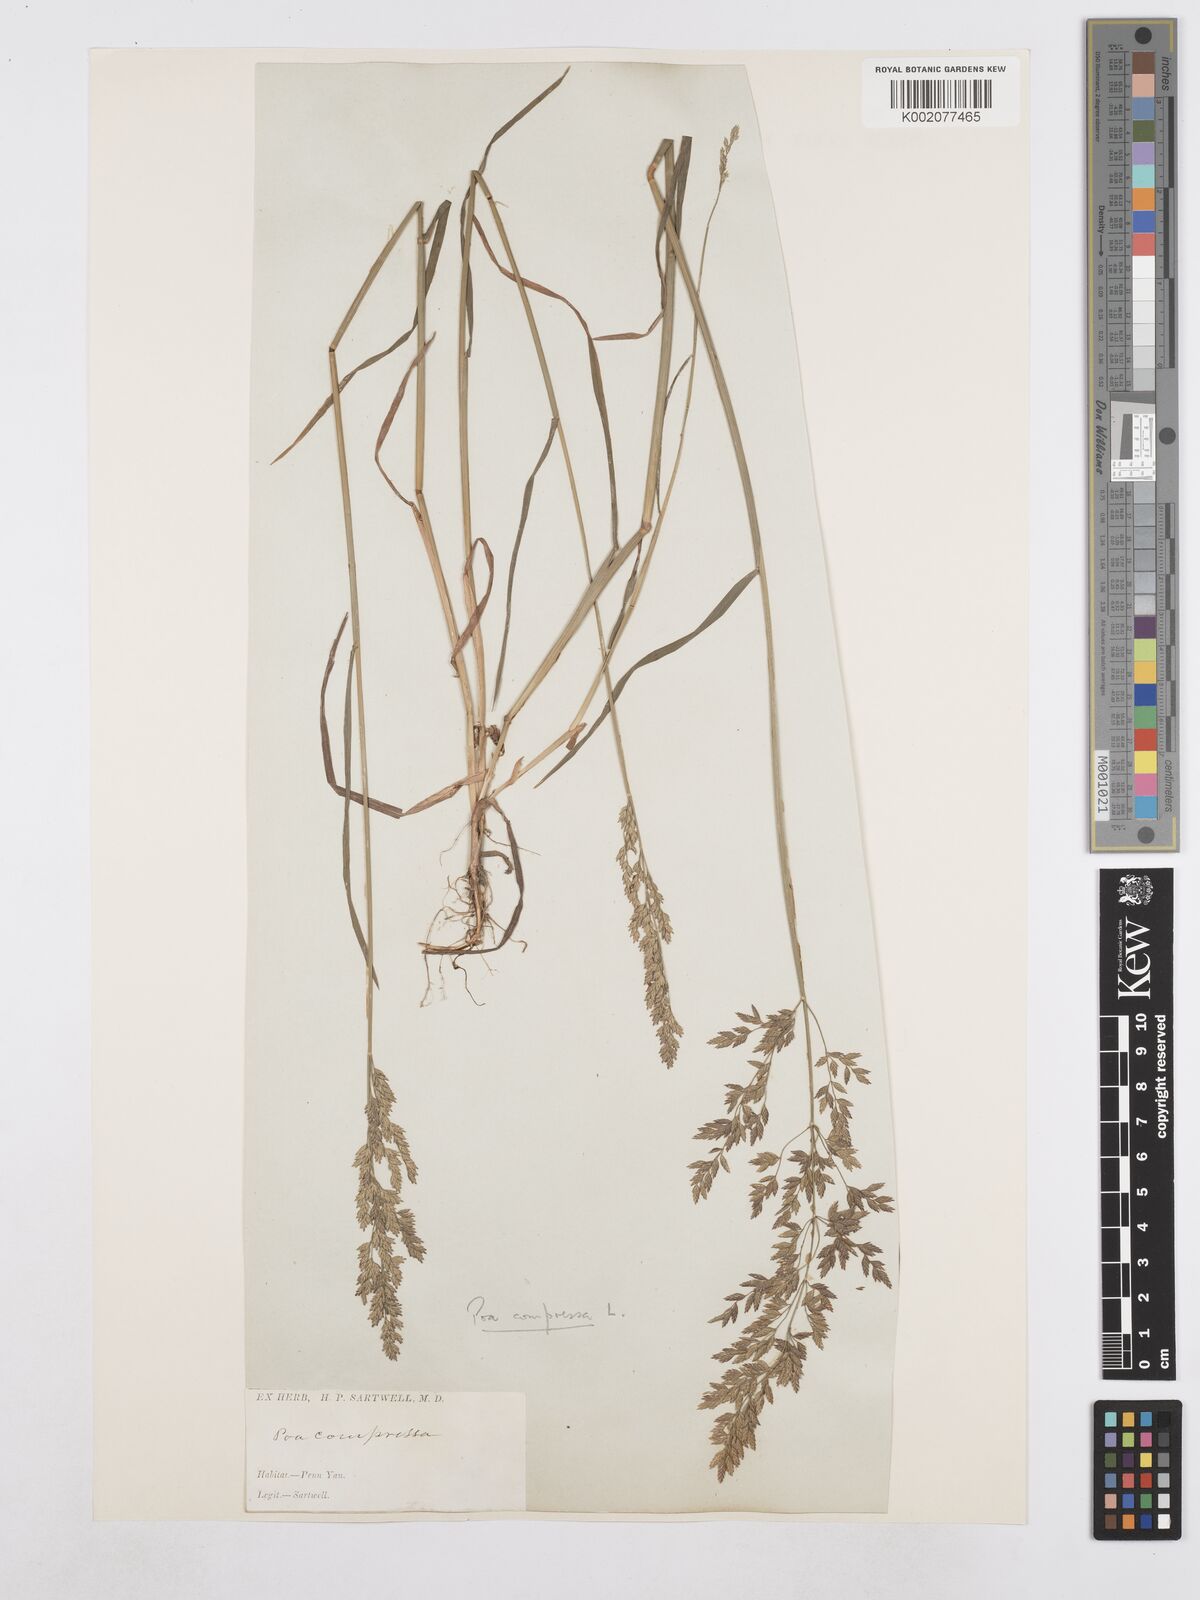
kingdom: Plantae
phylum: Tracheophyta
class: Liliopsida
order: Poales
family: Poaceae
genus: Poa
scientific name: Poa compressa
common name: Canada bluegrass
